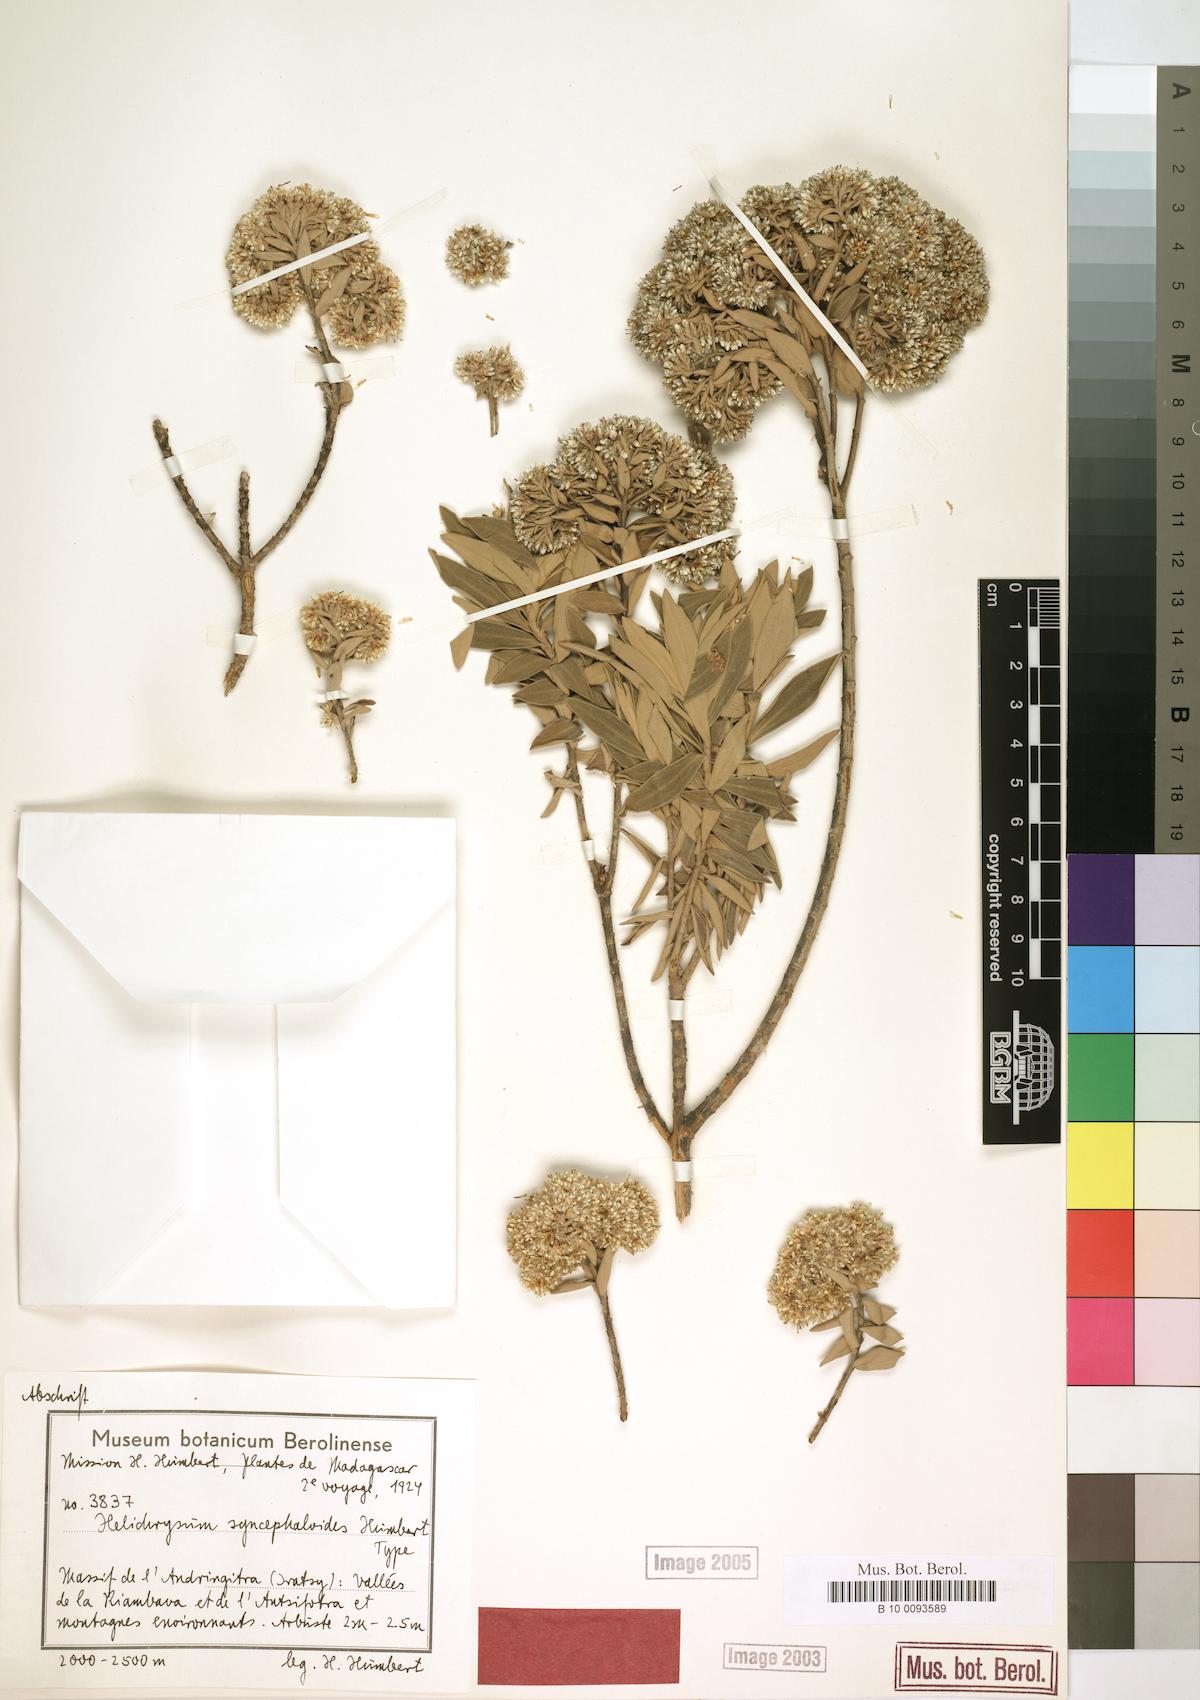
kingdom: Plantae
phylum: Tracheophyta
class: Magnoliopsida
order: Asterales
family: Asteraceae
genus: Helichrysum
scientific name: Helichrysum syncephaloides
